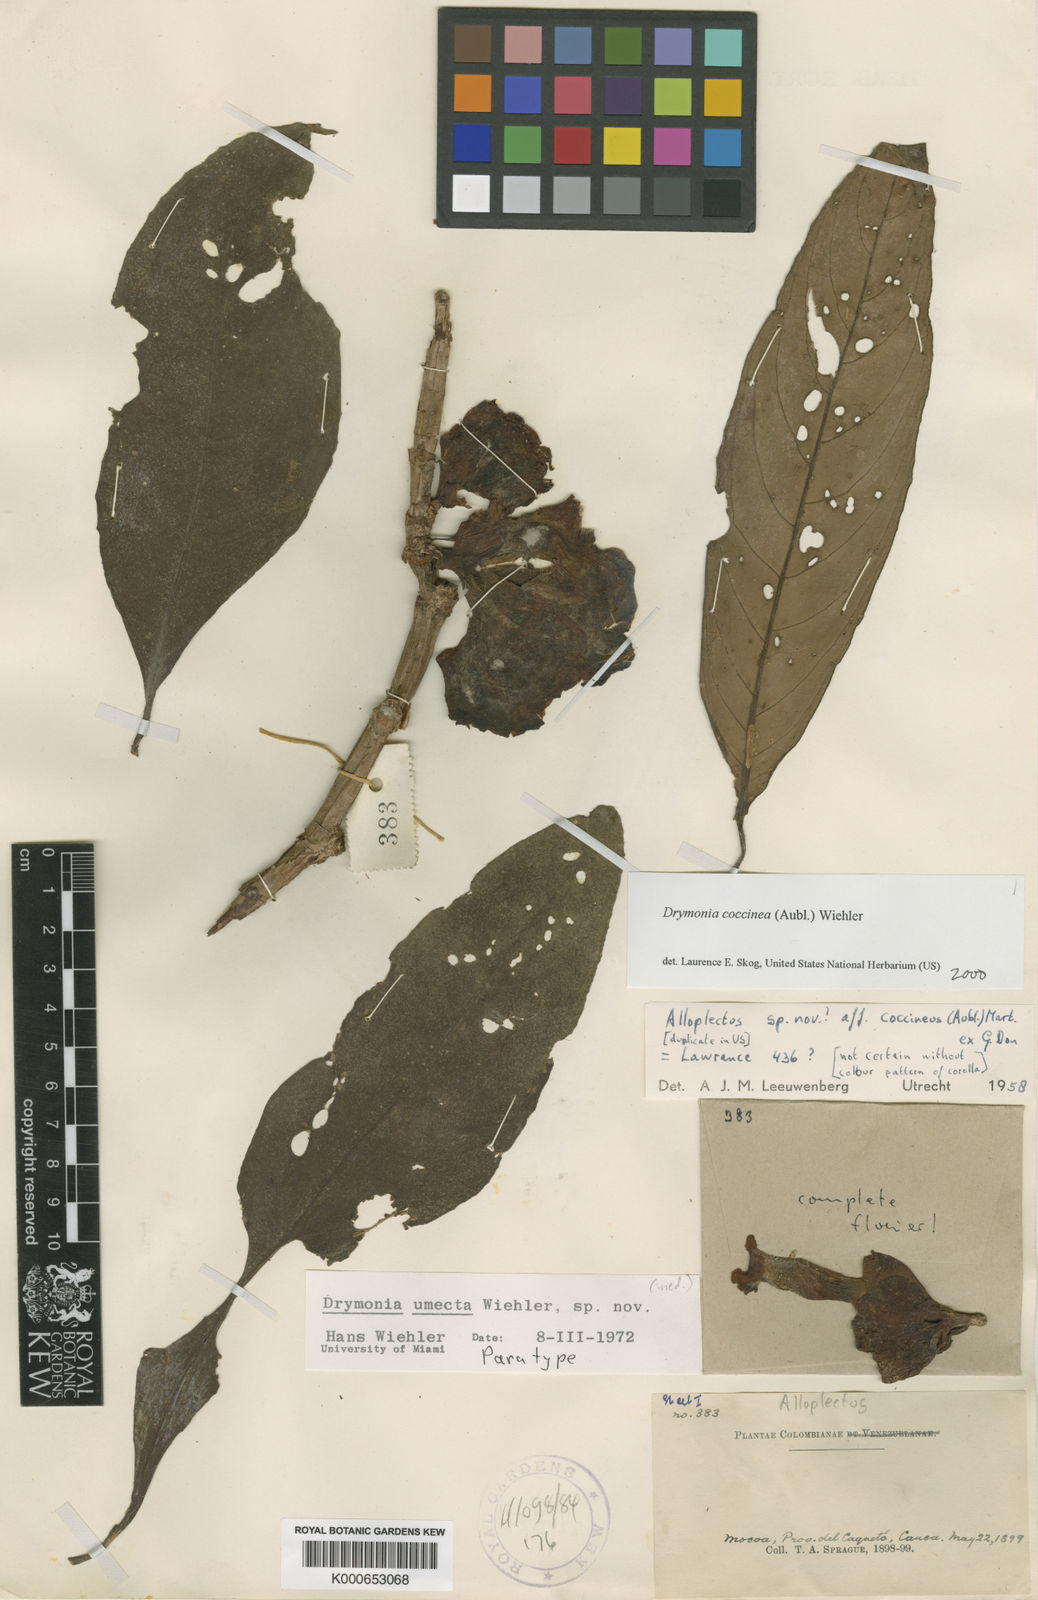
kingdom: Plantae
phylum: Tracheophyta
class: Magnoliopsida
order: Lamiales
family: Gesneriaceae
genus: Drymonia
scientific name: Drymonia
